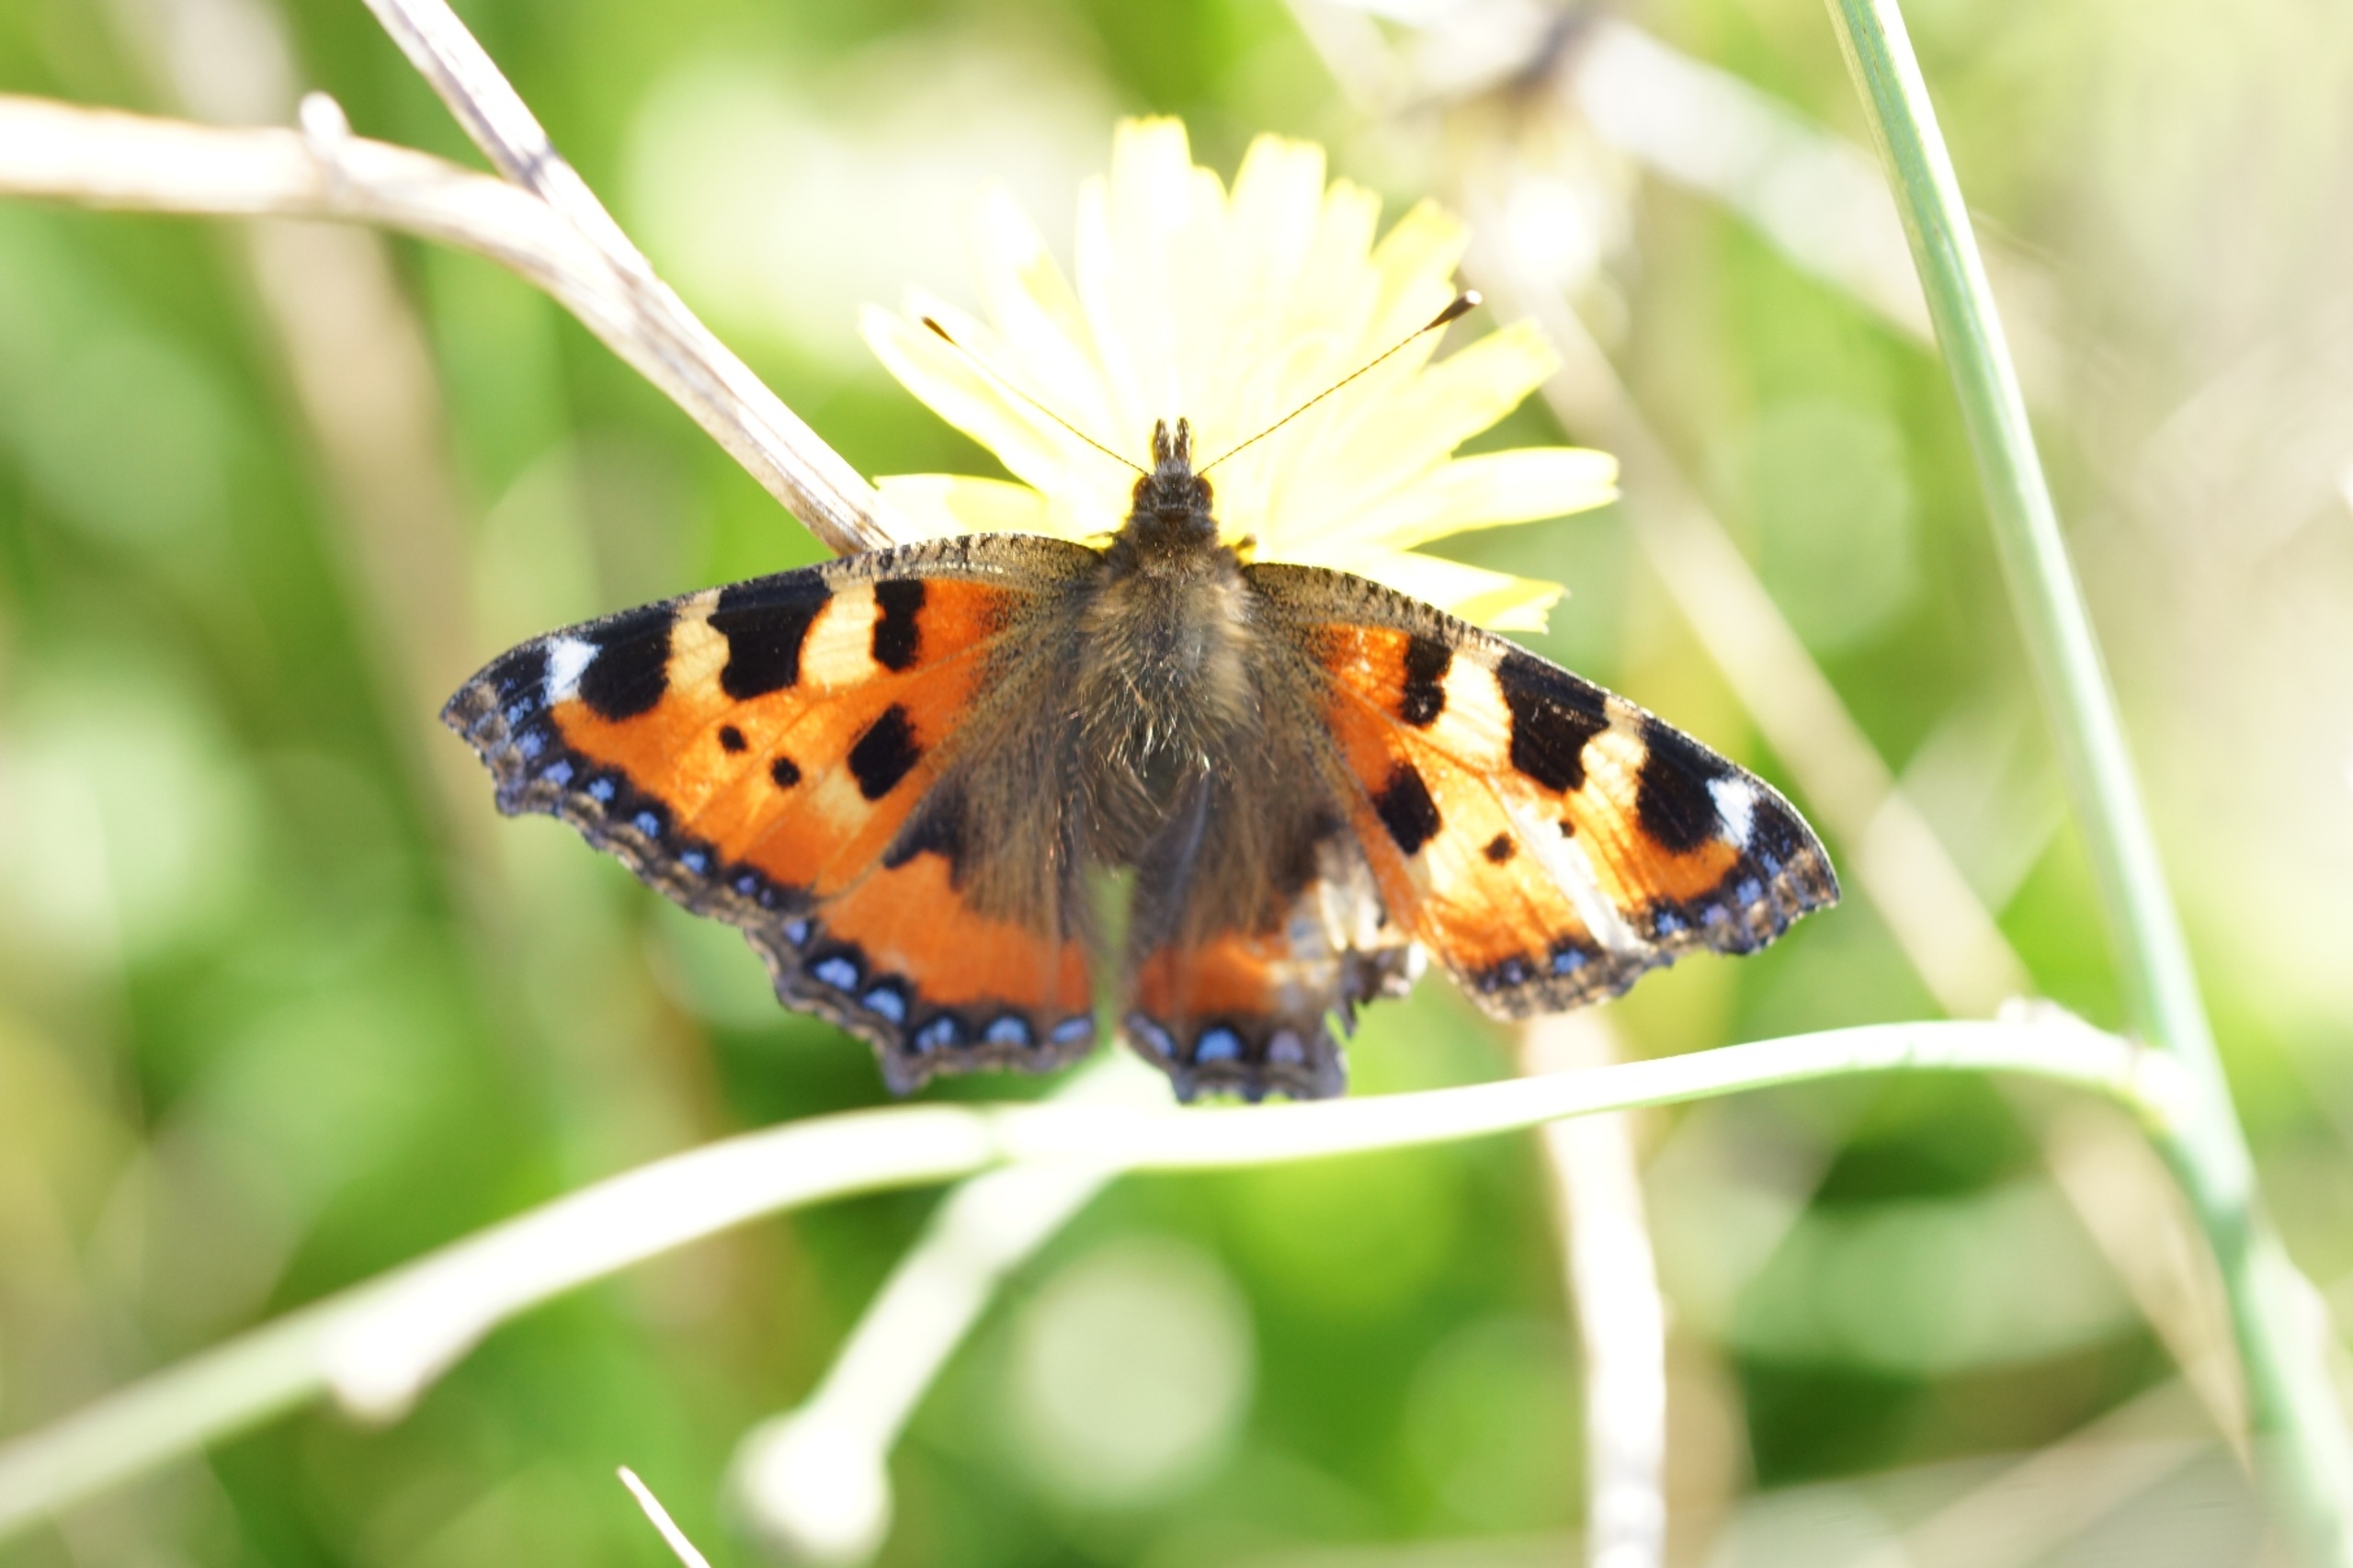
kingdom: Animalia
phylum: Arthropoda
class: Insecta
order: Lepidoptera
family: Nymphalidae
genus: Aglais
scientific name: Aglais urticae
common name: Nældens takvinge
